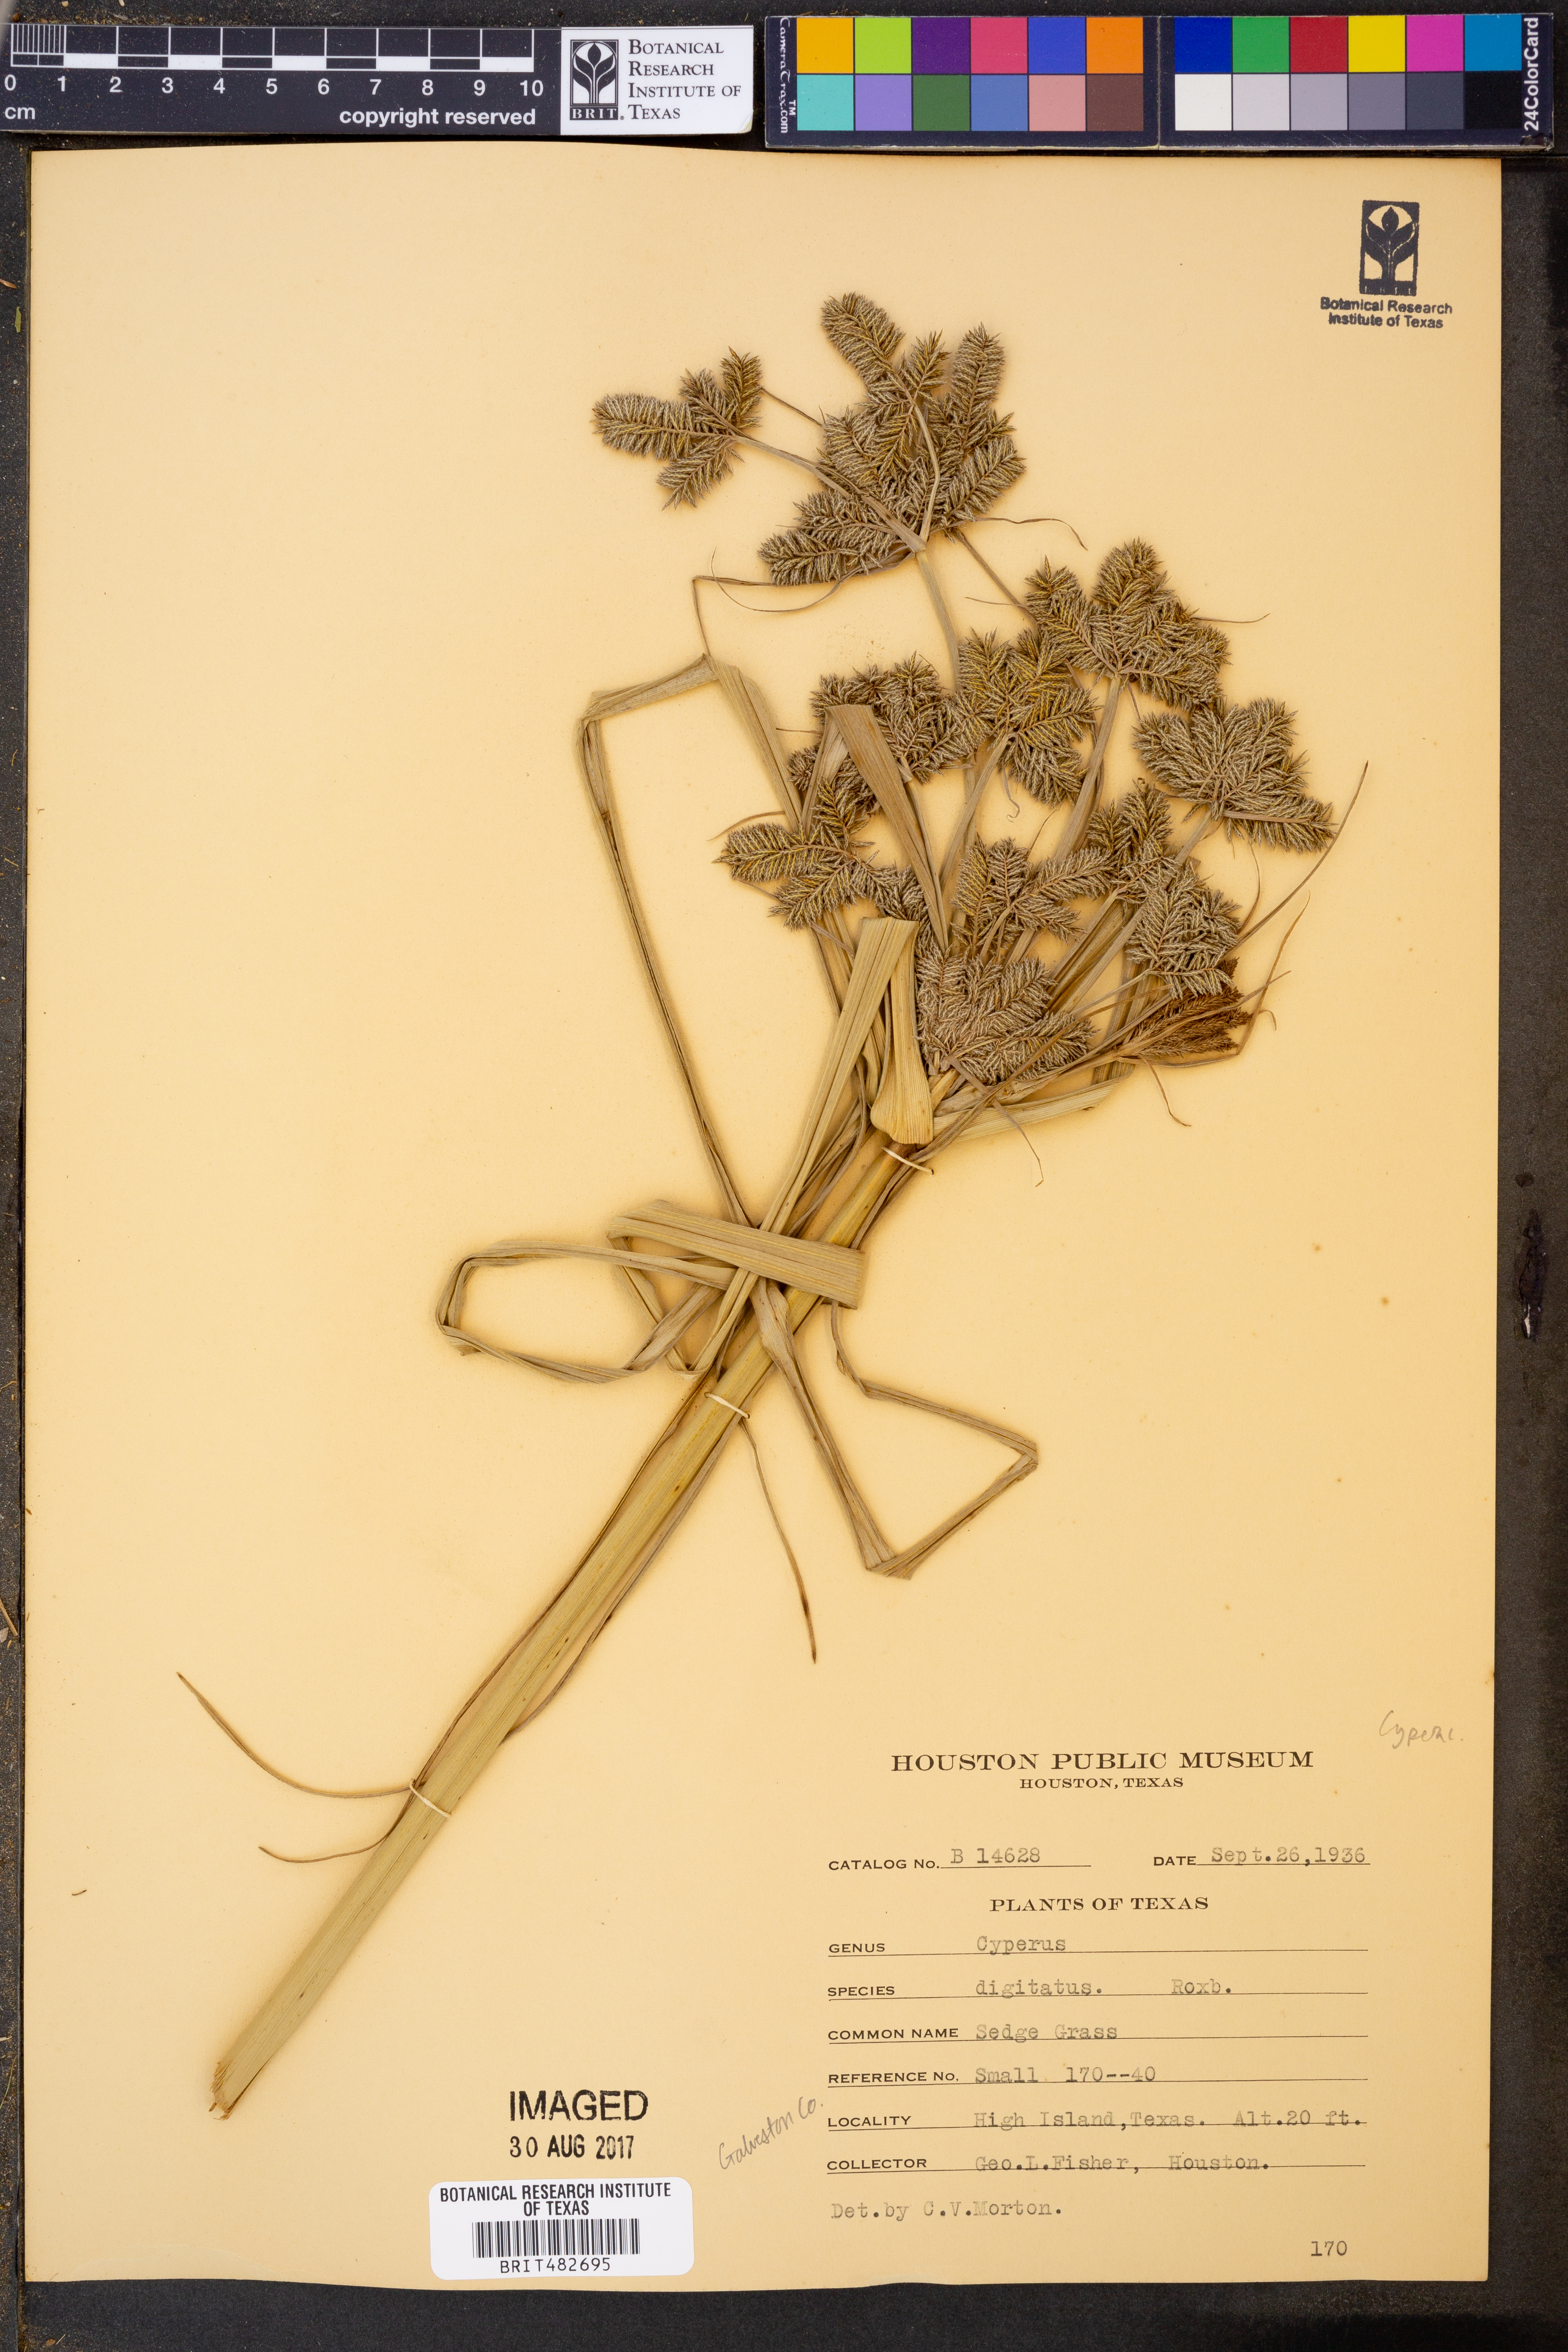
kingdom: Plantae
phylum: Tracheophyta
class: Liliopsida
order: Poales
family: Cyperaceae
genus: Cyperus
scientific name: Cyperus digitatus
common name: Finger flatsedge
